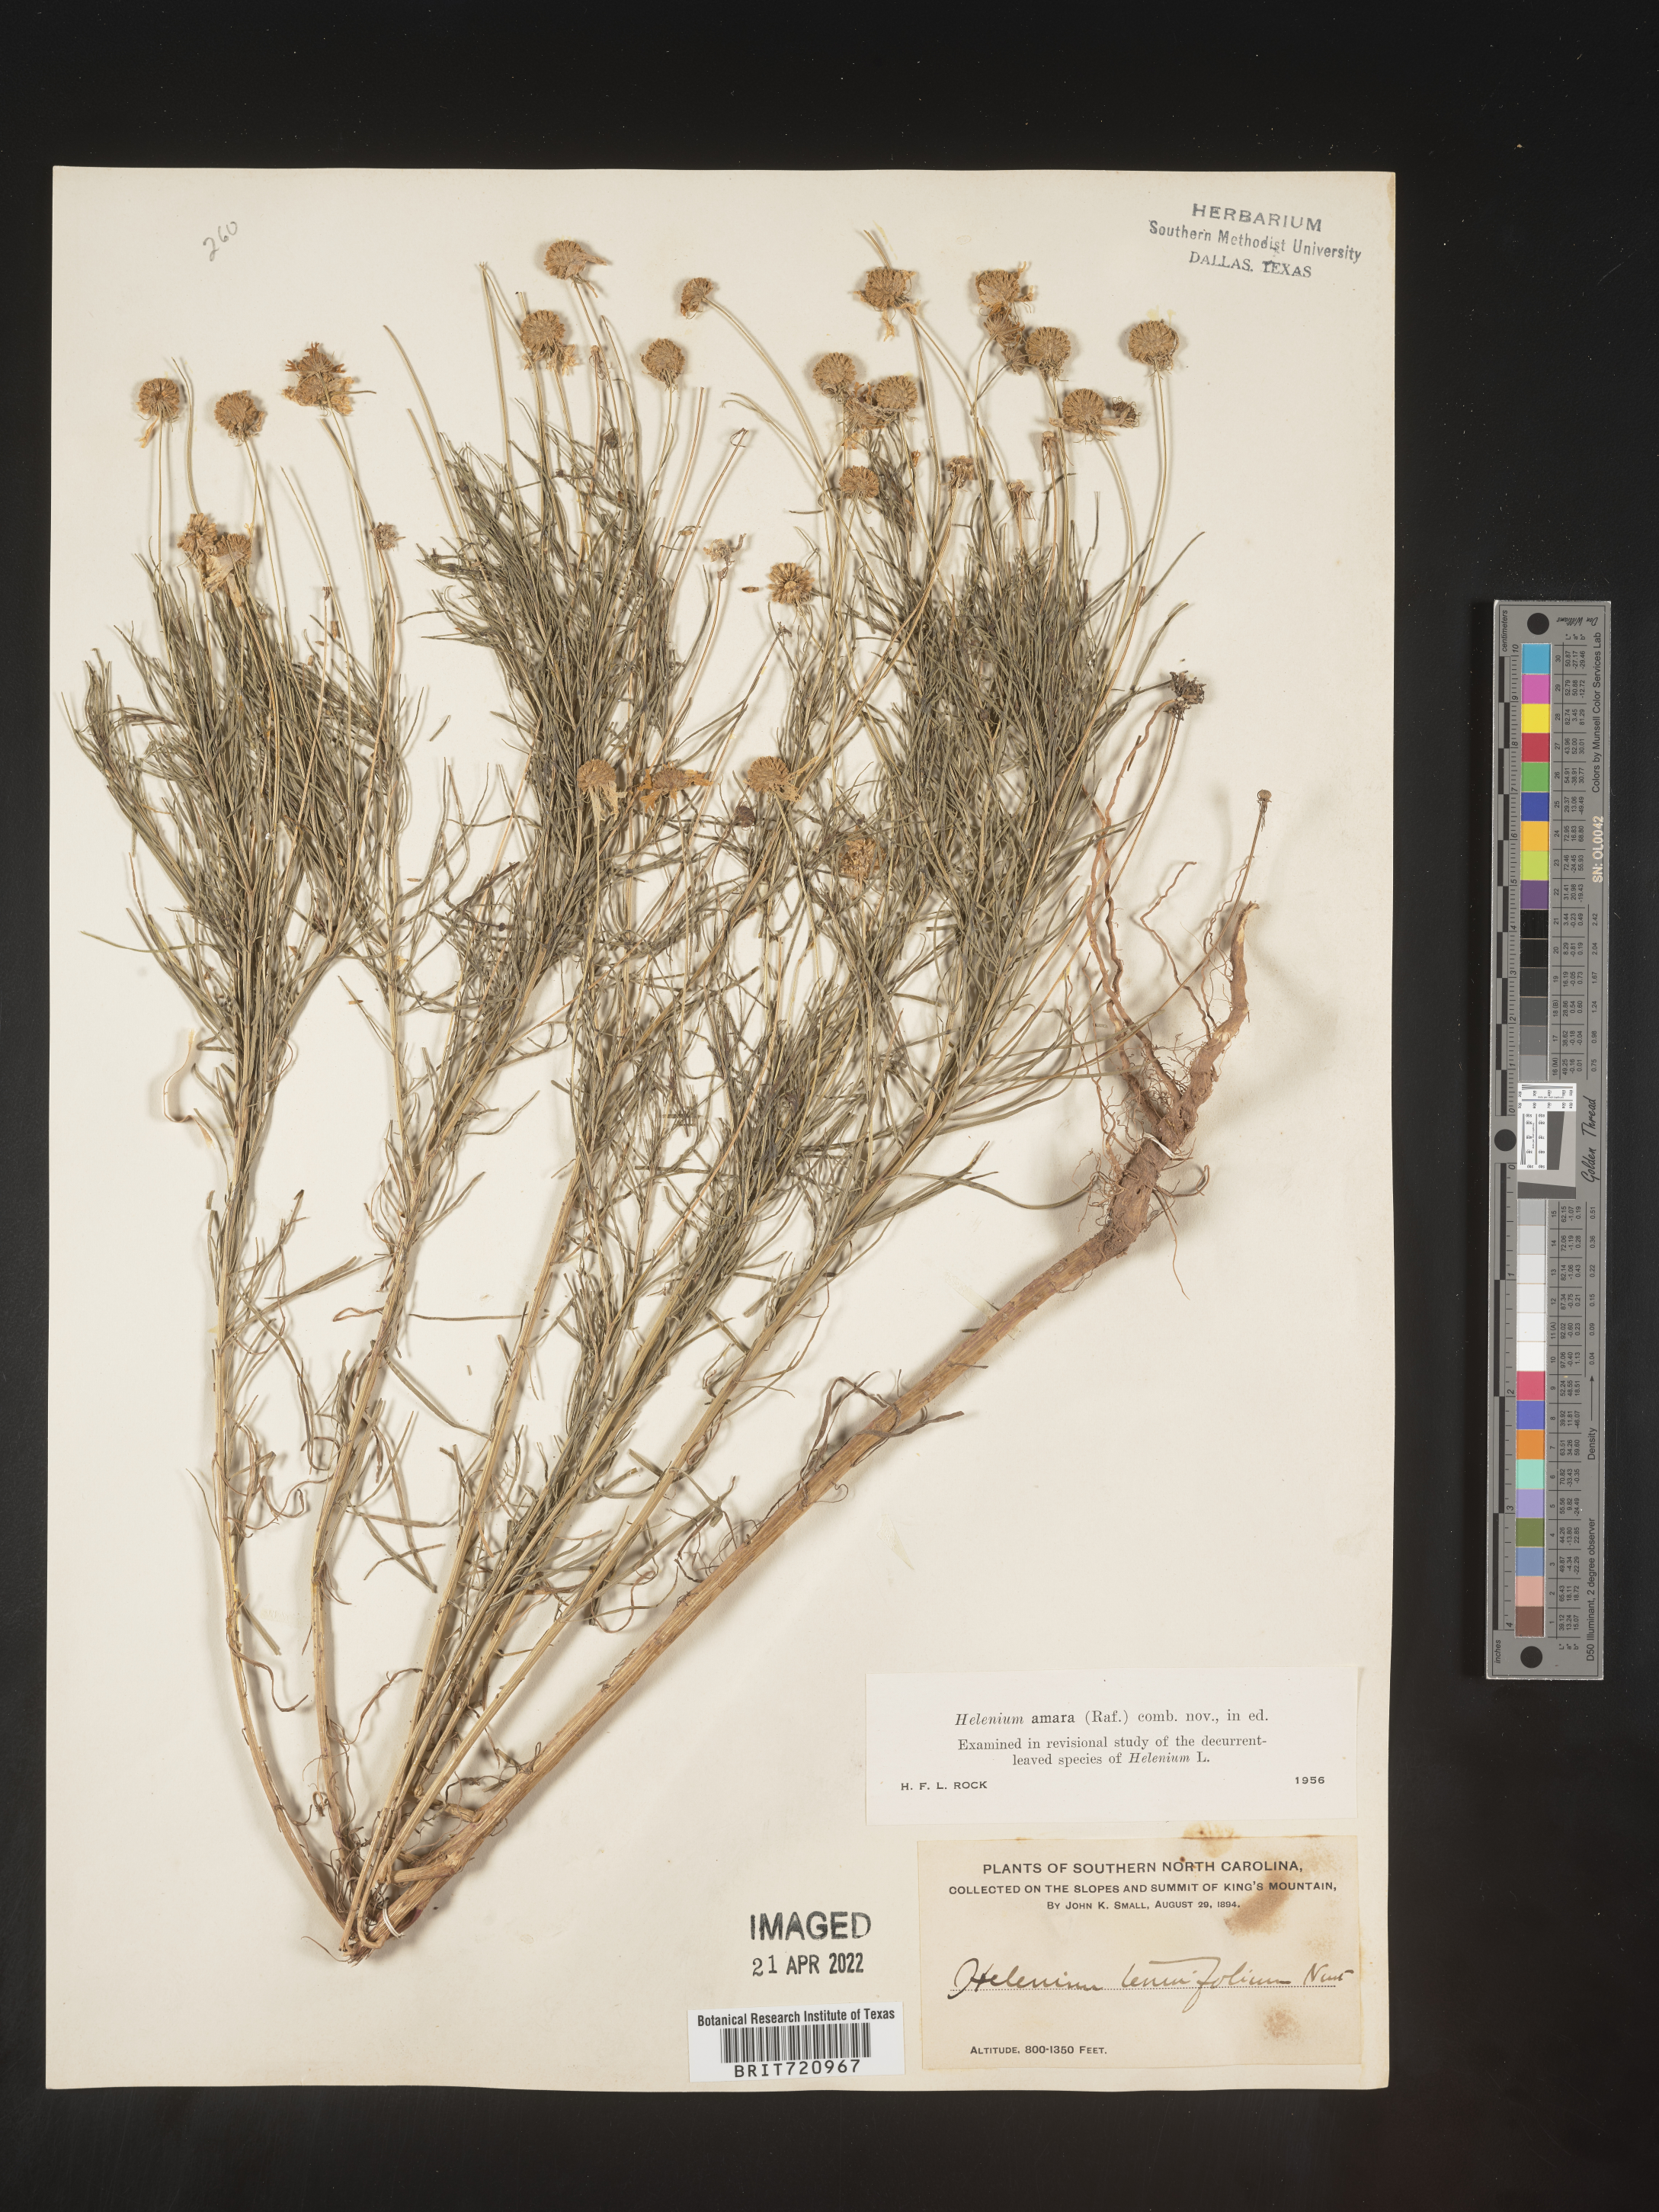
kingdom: Plantae
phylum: Tracheophyta
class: Magnoliopsida
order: Asterales
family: Asteraceae
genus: Helenium
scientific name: Helenium amarum
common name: Bitter sneezeweed
